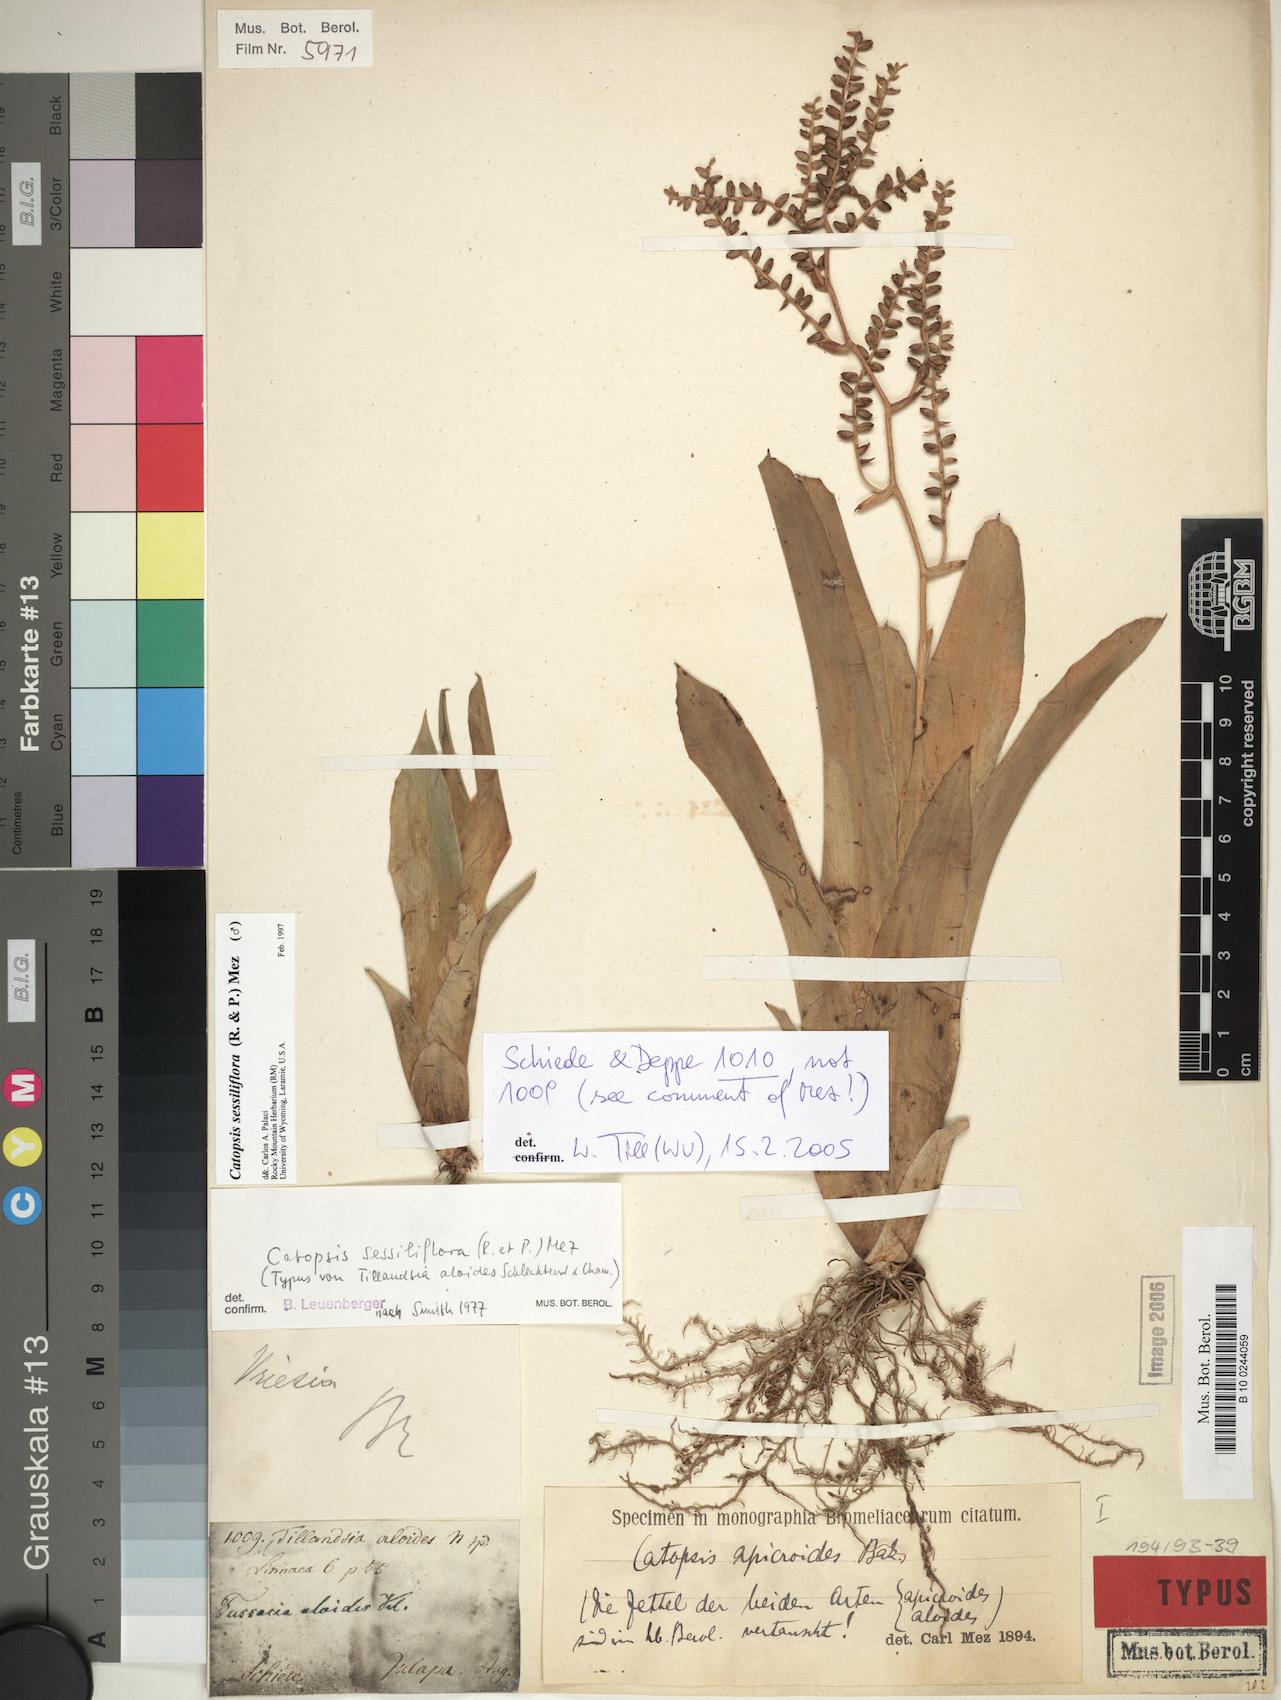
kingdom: Plantae
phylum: Tracheophyta
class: Liliopsida
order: Poales
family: Bromeliaceae
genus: Catopsis
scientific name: Catopsis sessiliflora
